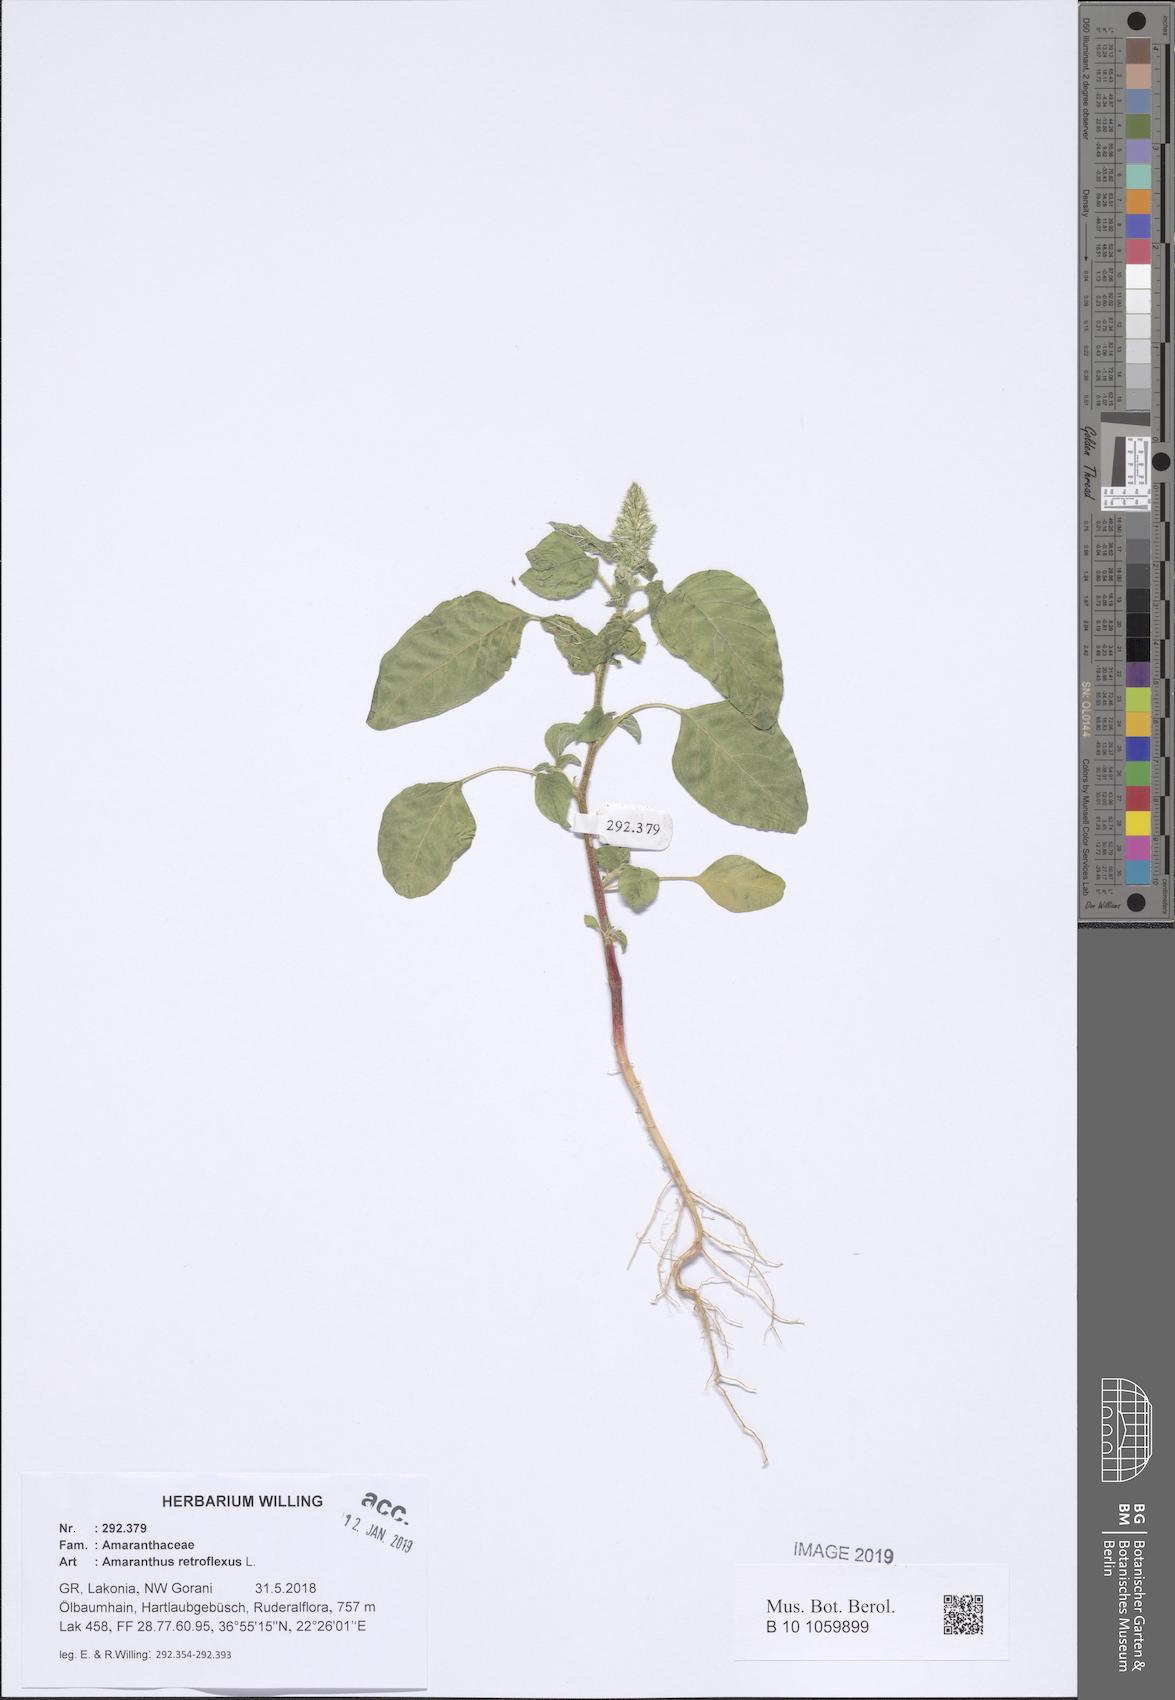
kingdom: Plantae
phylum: Tracheophyta
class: Magnoliopsida
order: Caryophyllales
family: Amaranthaceae
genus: Amaranthus
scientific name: Amaranthus retroflexus
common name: Redroot amaranth
